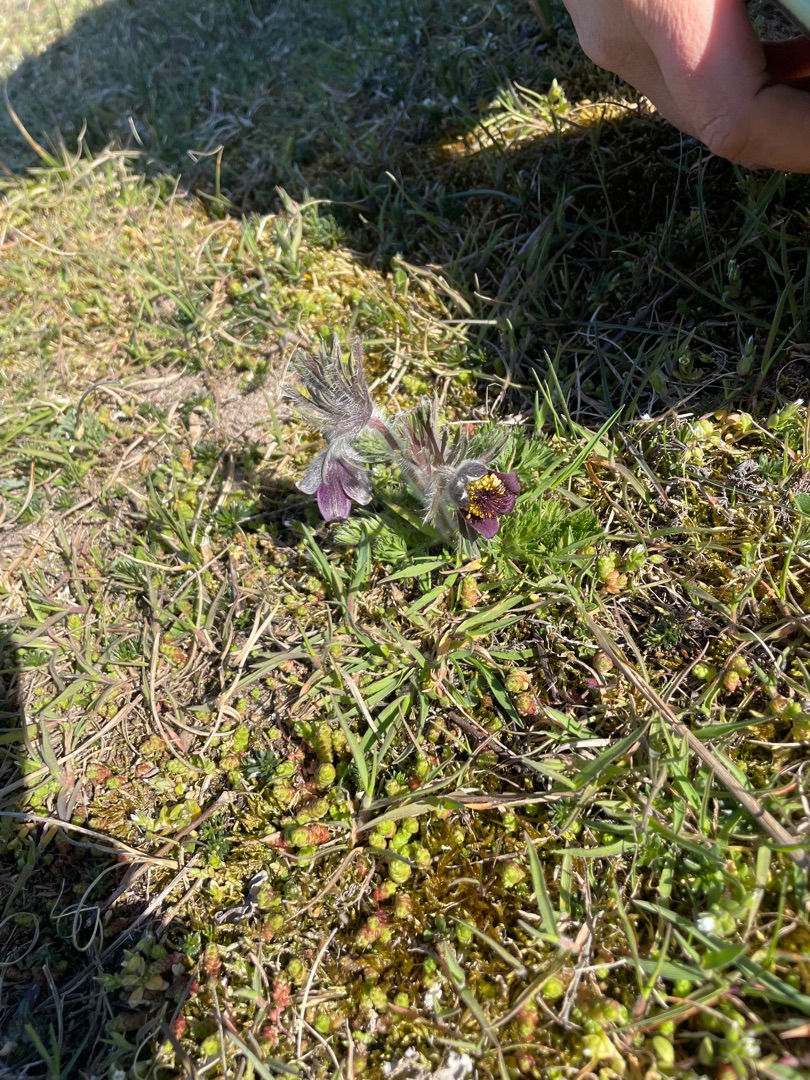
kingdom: Plantae
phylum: Tracheophyta
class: Magnoliopsida
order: Ranunculales
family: Ranunculaceae
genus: Pulsatilla
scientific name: Pulsatilla pratensis
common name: Nikkende kobjælde
